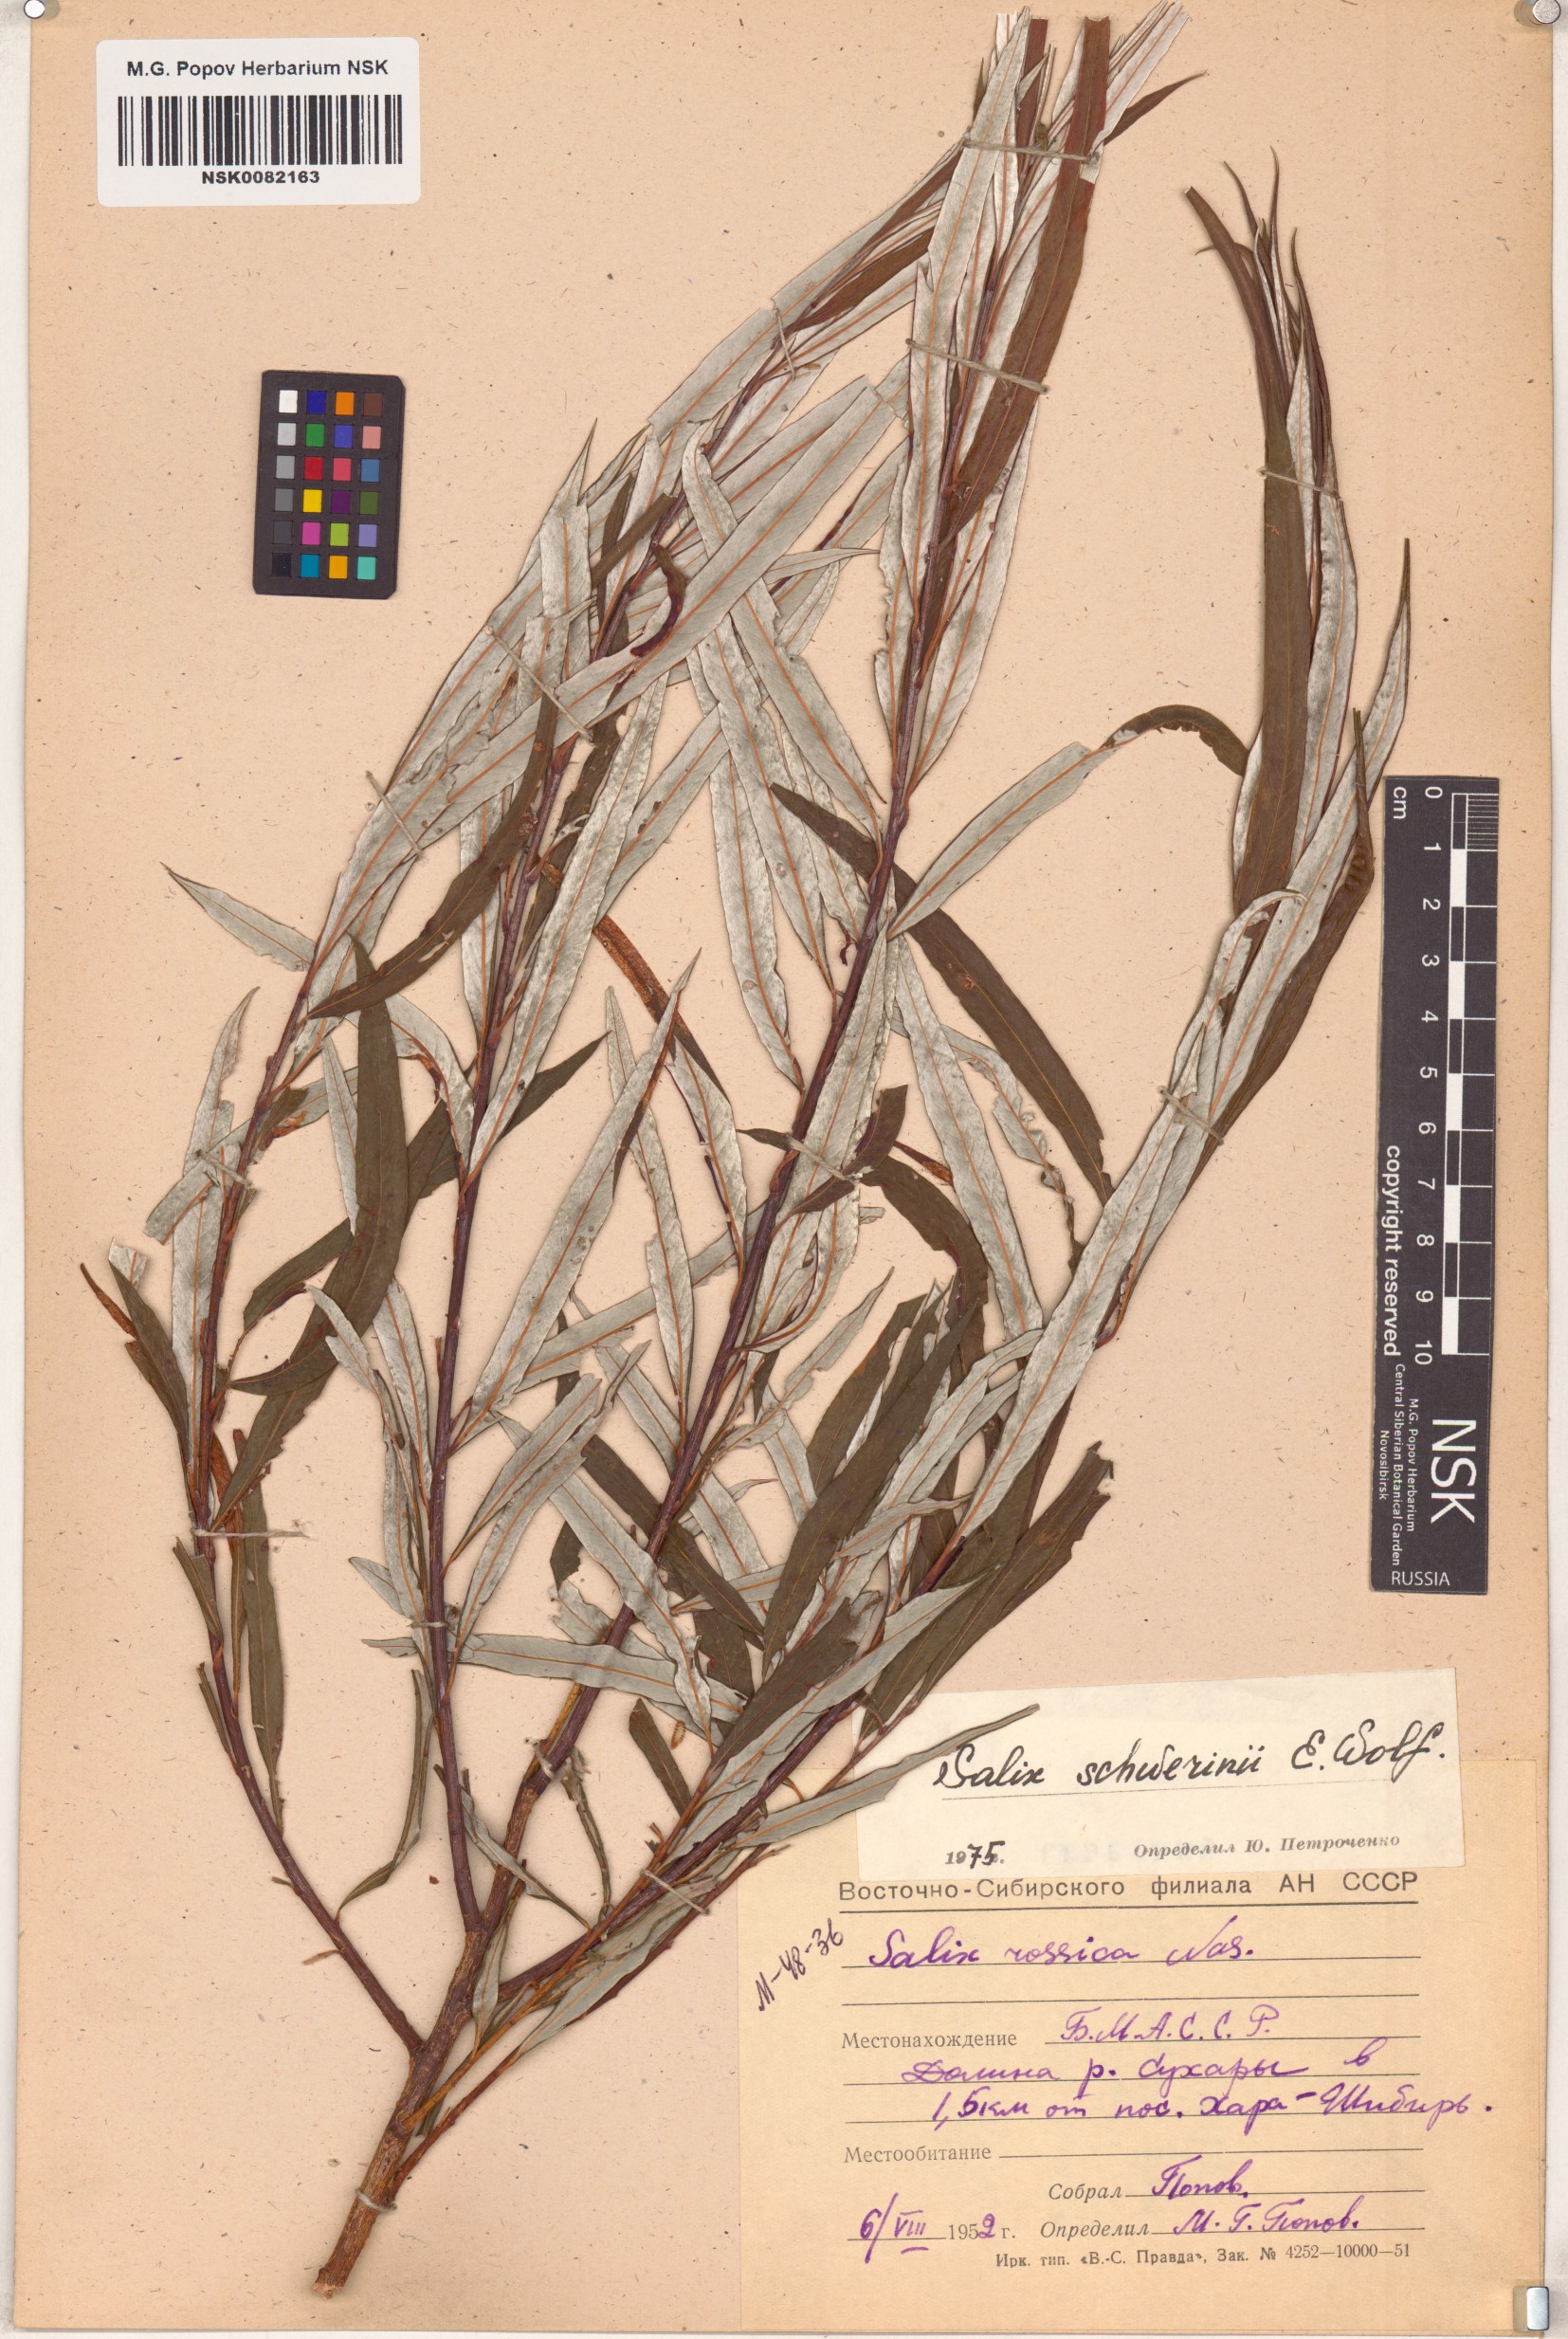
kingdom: Plantae
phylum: Tracheophyta
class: Magnoliopsida
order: Malpighiales
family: Salicaceae
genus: Salix
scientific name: Salix schwerinii
